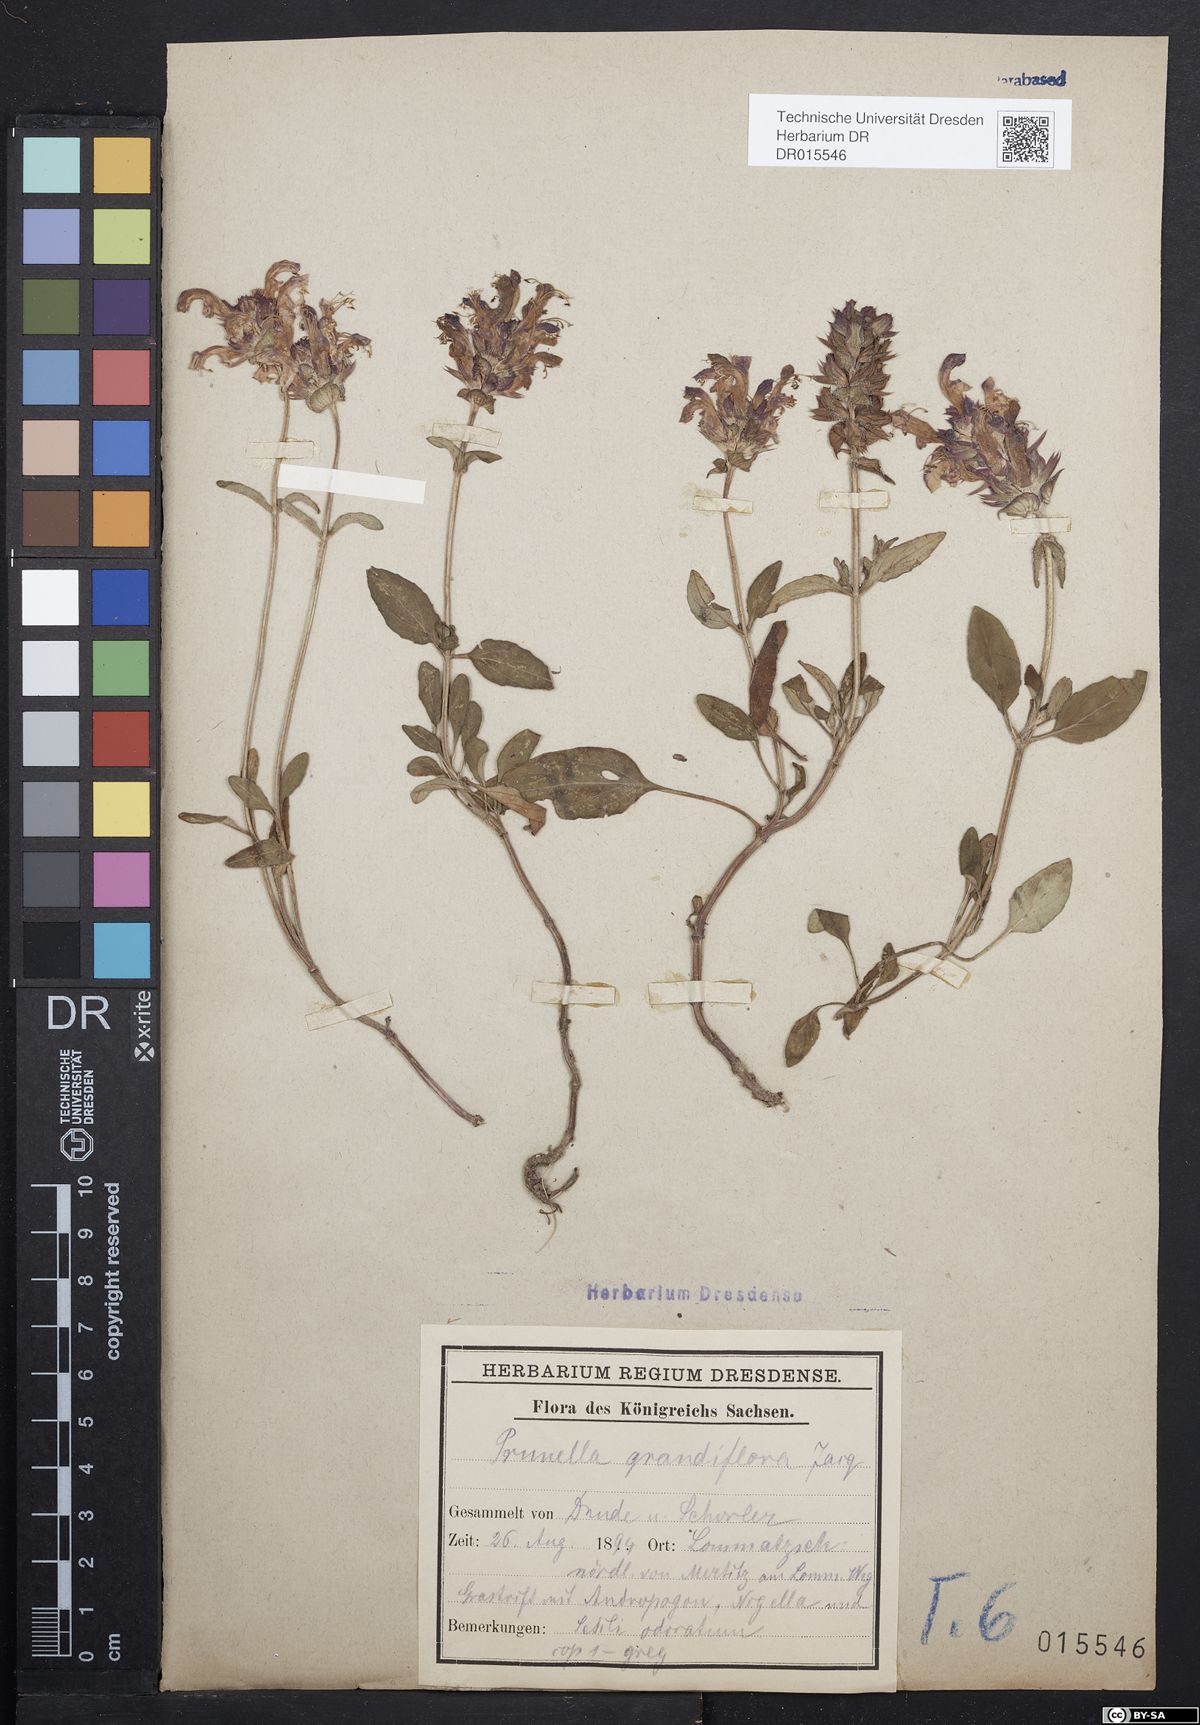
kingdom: Plantae
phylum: Tracheophyta
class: Magnoliopsida
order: Lamiales
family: Lamiaceae
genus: Prunella
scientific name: Prunella grandiflora
